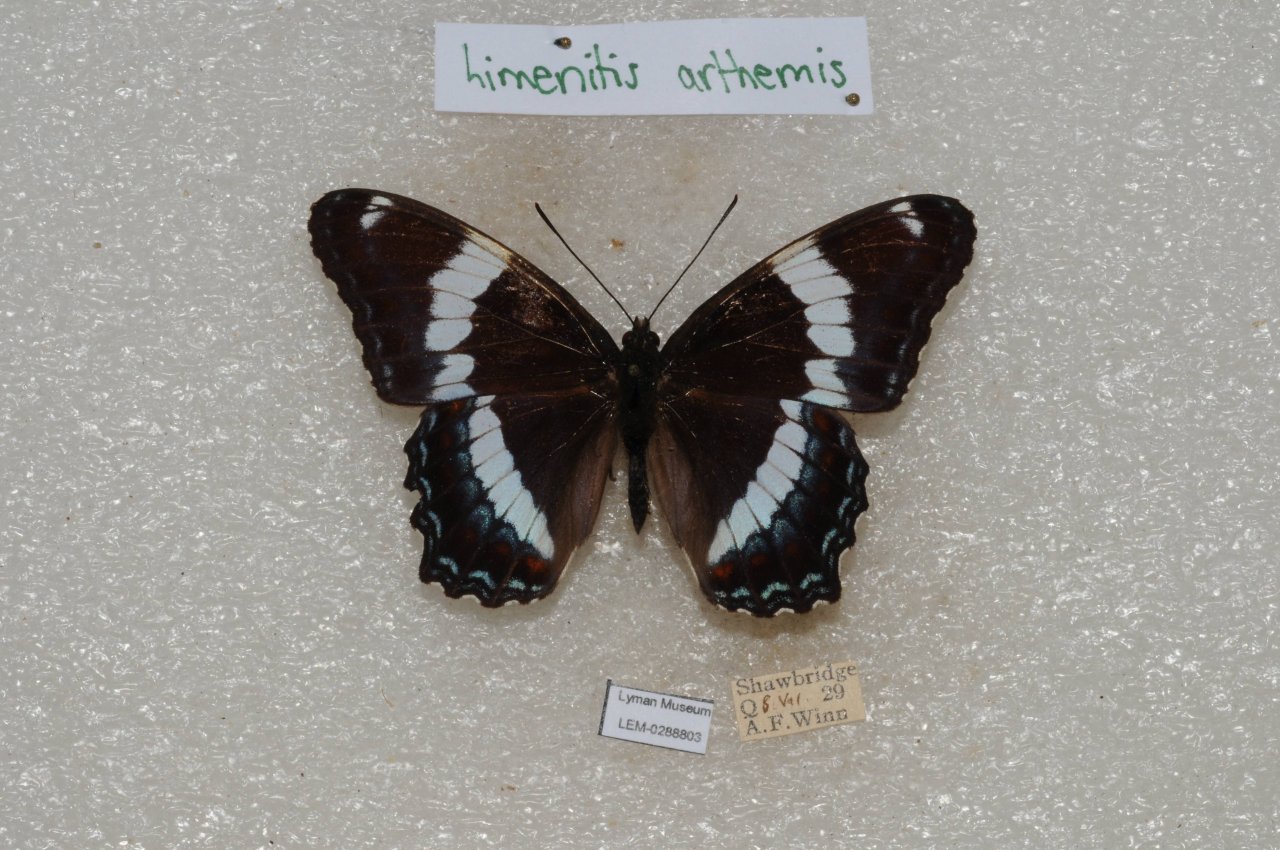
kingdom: Animalia
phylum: Arthropoda
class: Insecta
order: Lepidoptera
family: Nymphalidae
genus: Limenitis
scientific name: Limenitis arthemis
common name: Red-spotted Admiral
